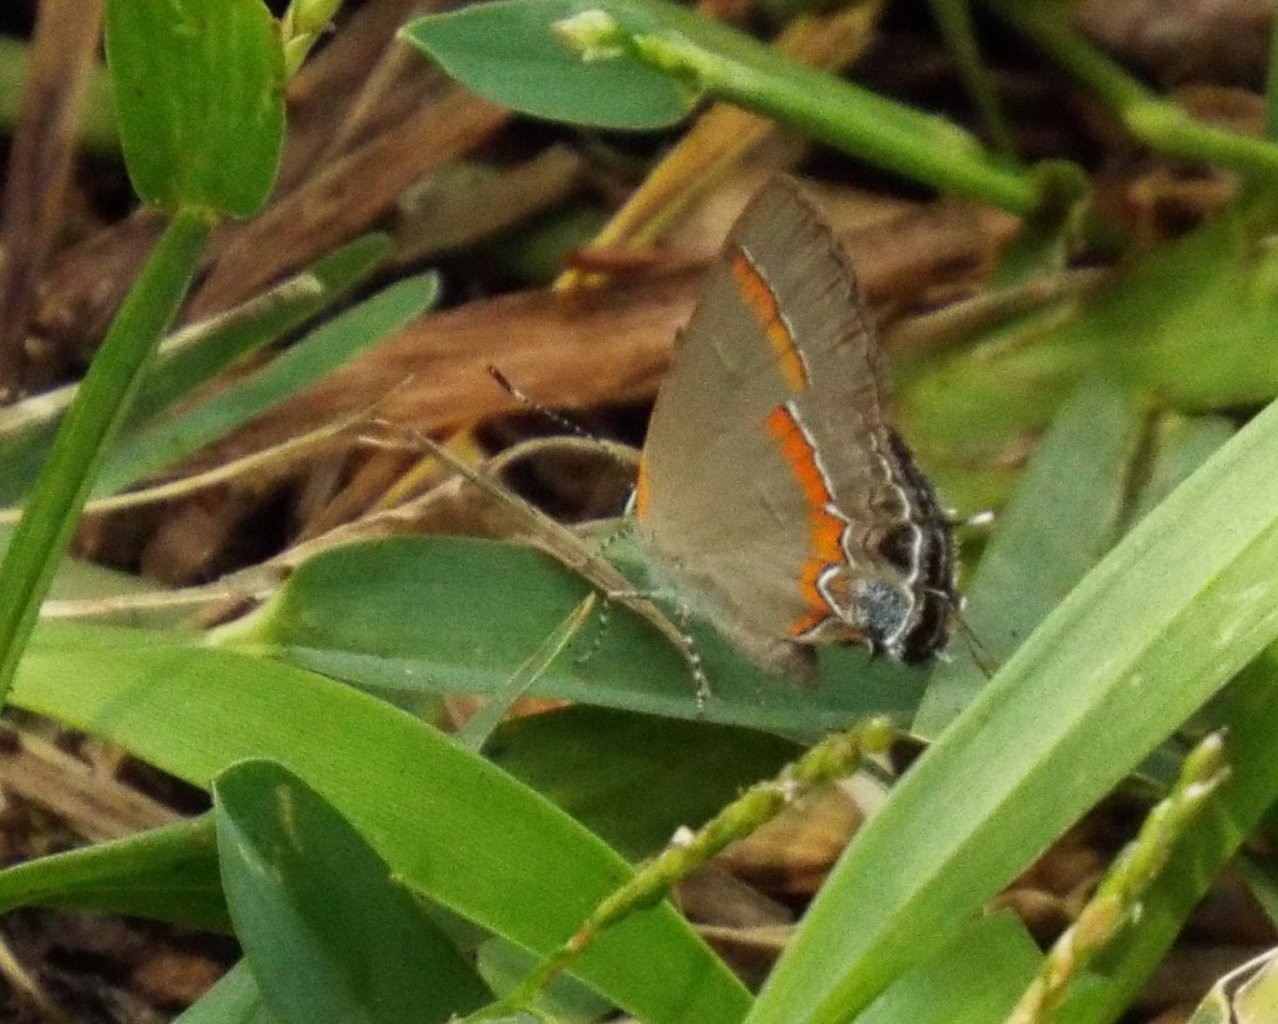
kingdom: Animalia
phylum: Arthropoda
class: Insecta
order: Lepidoptera
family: Lycaenidae
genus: Calycopis
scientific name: Calycopis cecrops
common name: Red-banded Hairstreak
